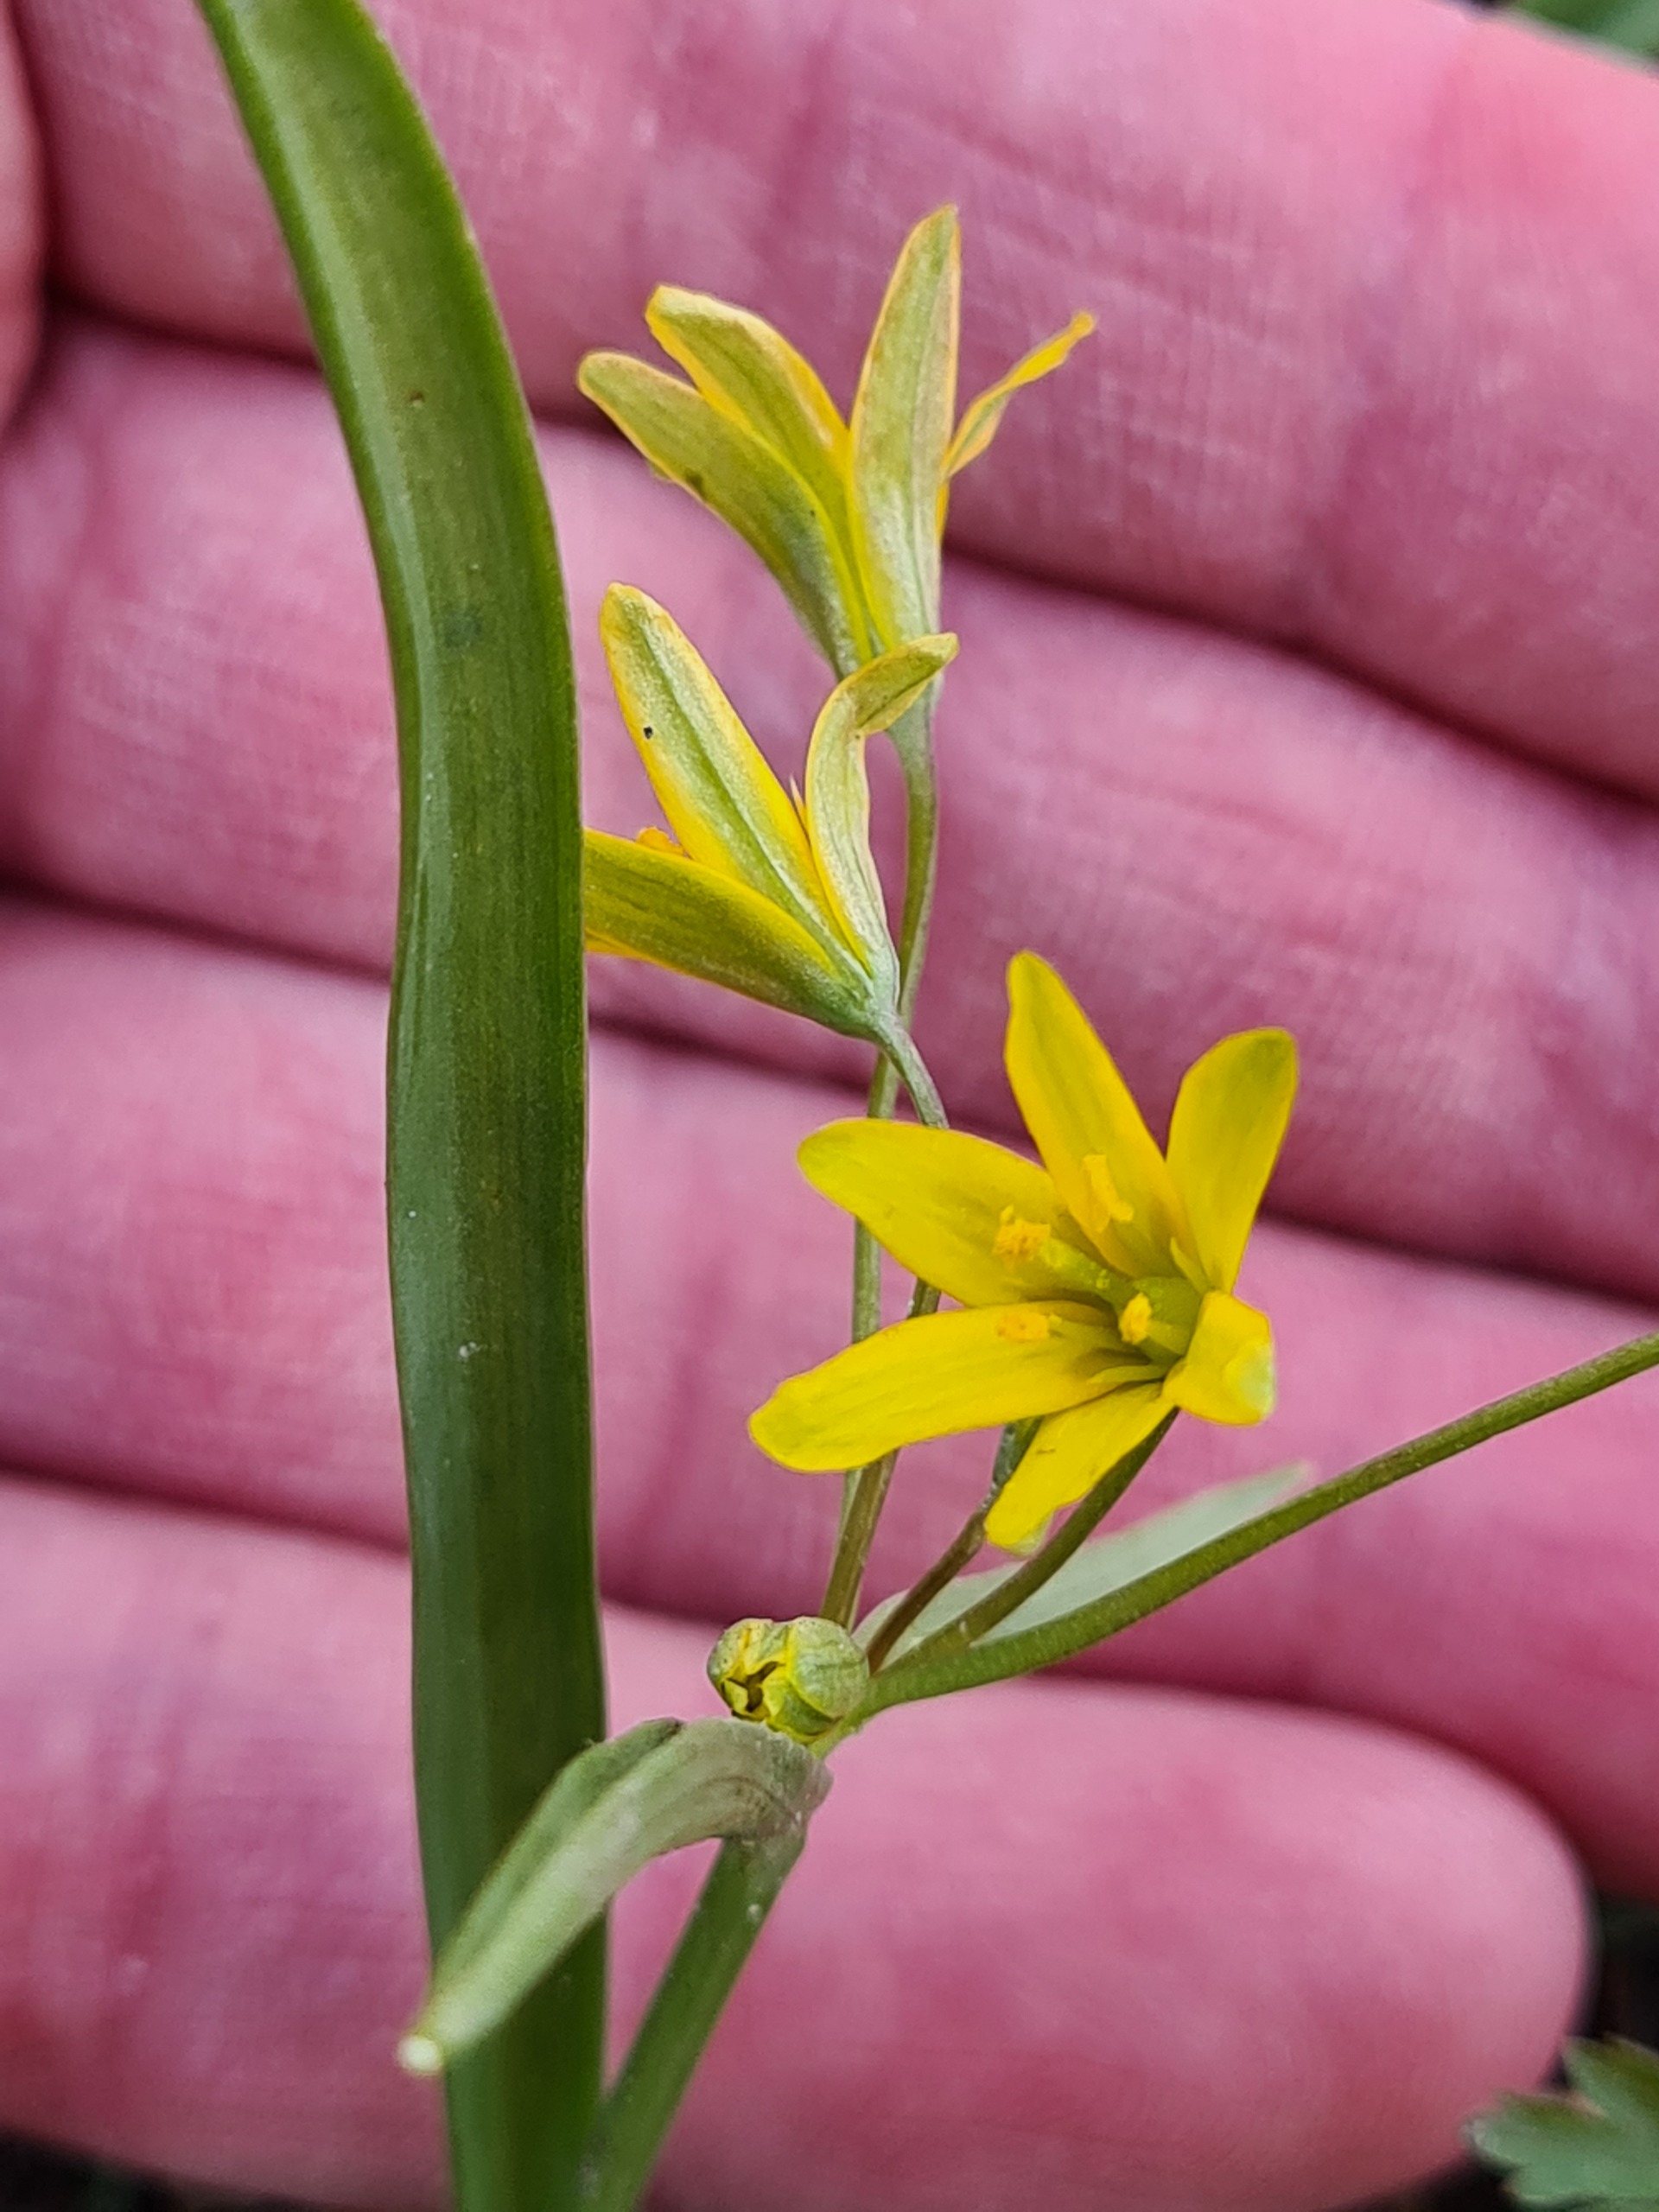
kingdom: Plantae
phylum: Tracheophyta
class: Liliopsida
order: Liliales
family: Liliaceae
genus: Gagea
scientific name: Gagea lutea
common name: Almindelig guldstjerne
